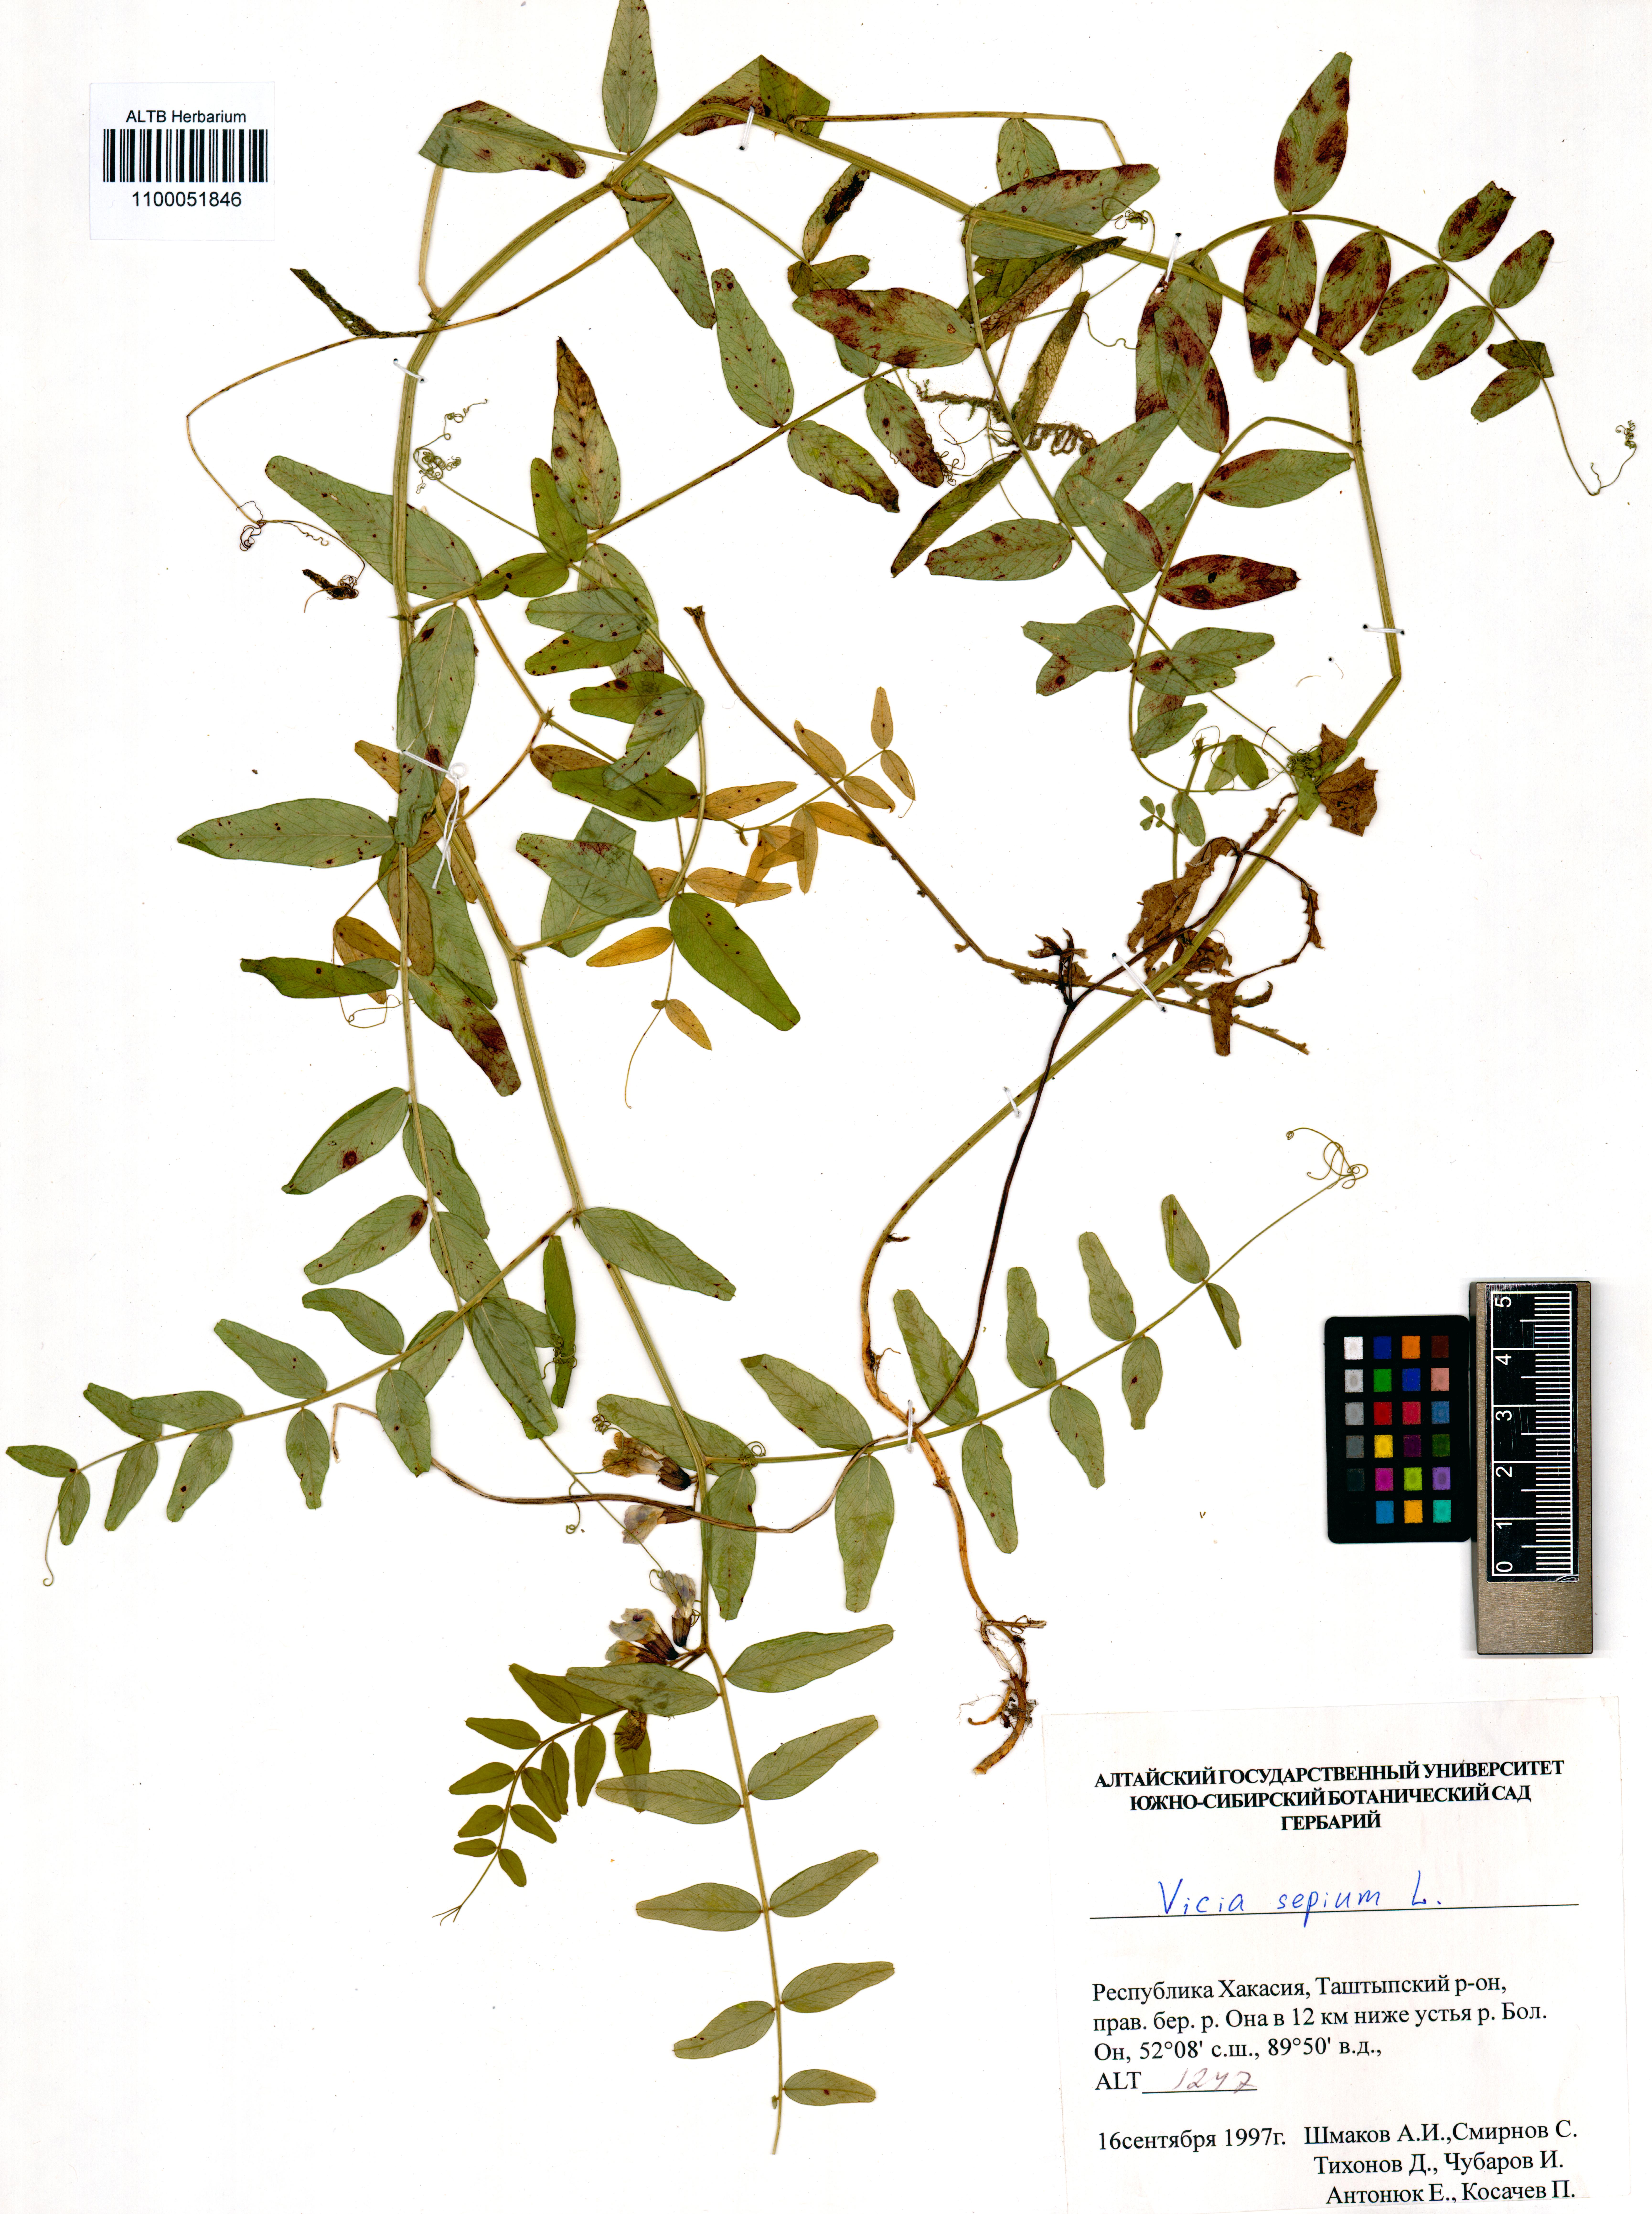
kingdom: Plantae
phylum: Tracheophyta
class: Magnoliopsida
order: Fabales
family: Fabaceae
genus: Vicia
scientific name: Vicia sepium
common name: Bush vetch
